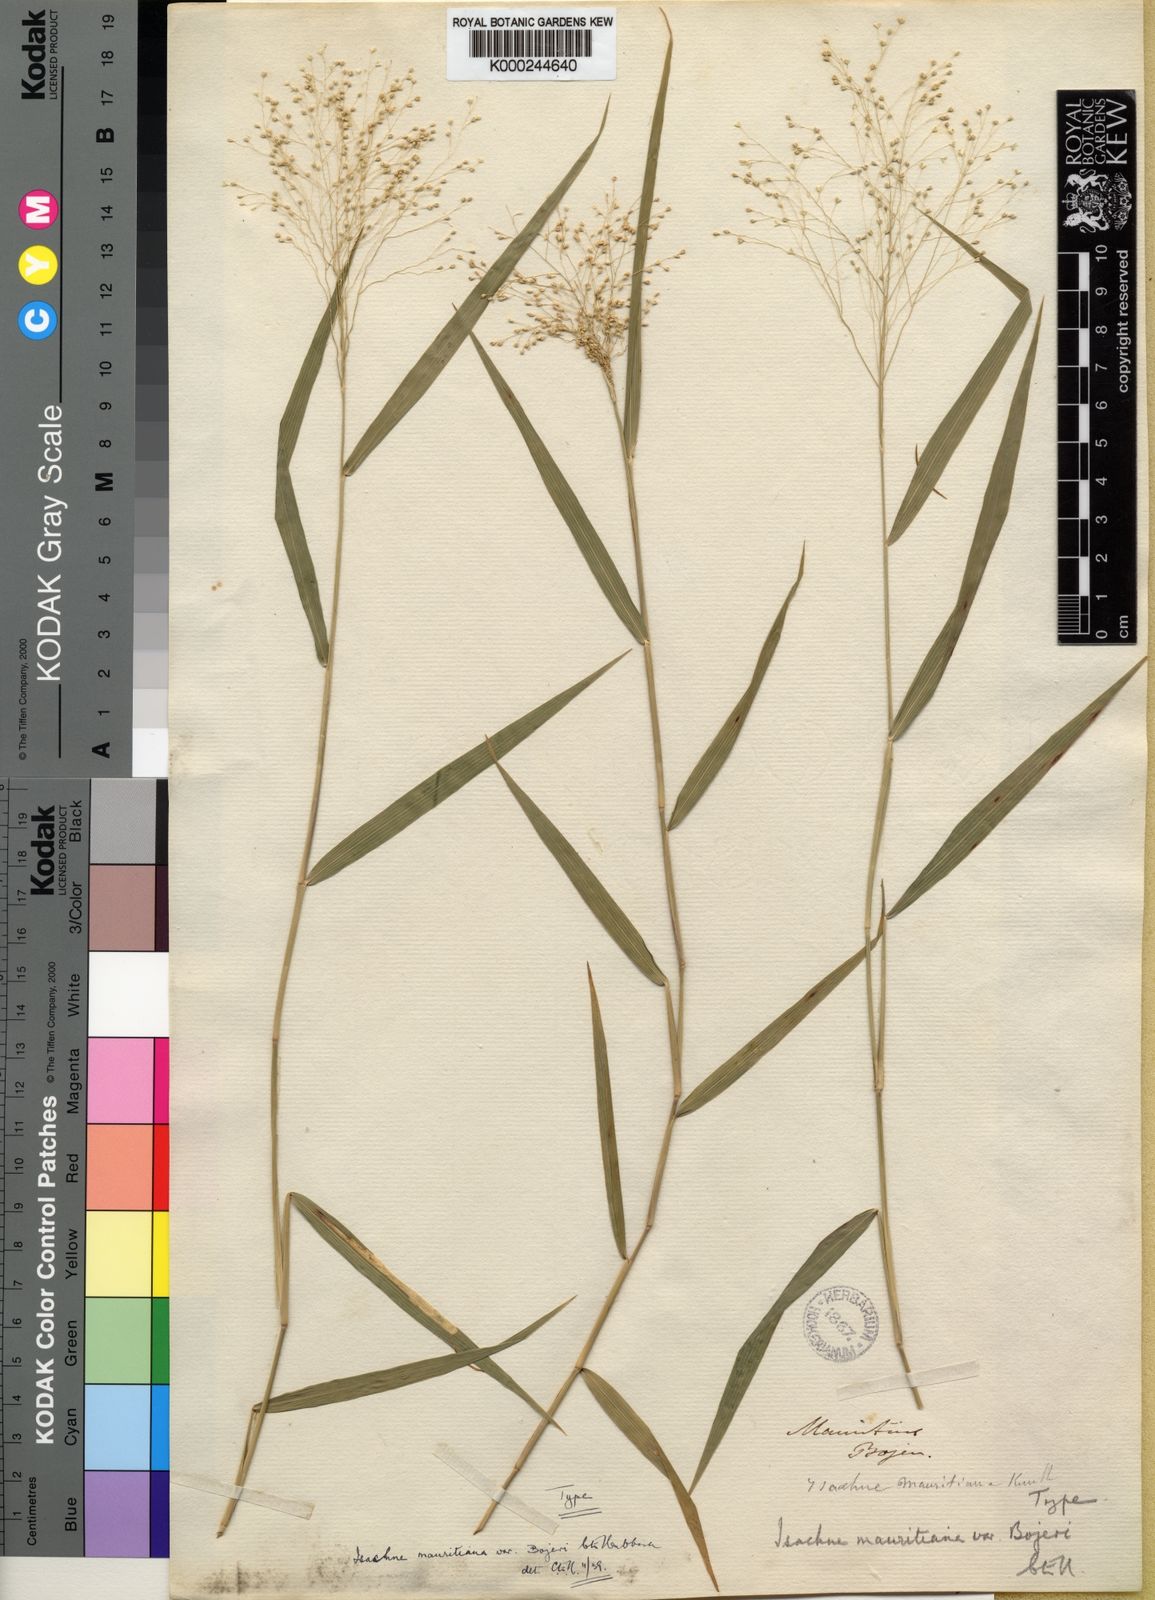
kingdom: Plantae
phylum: Tracheophyta
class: Liliopsida
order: Poales
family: Poaceae
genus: Isachne
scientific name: Isachne mauritiana
